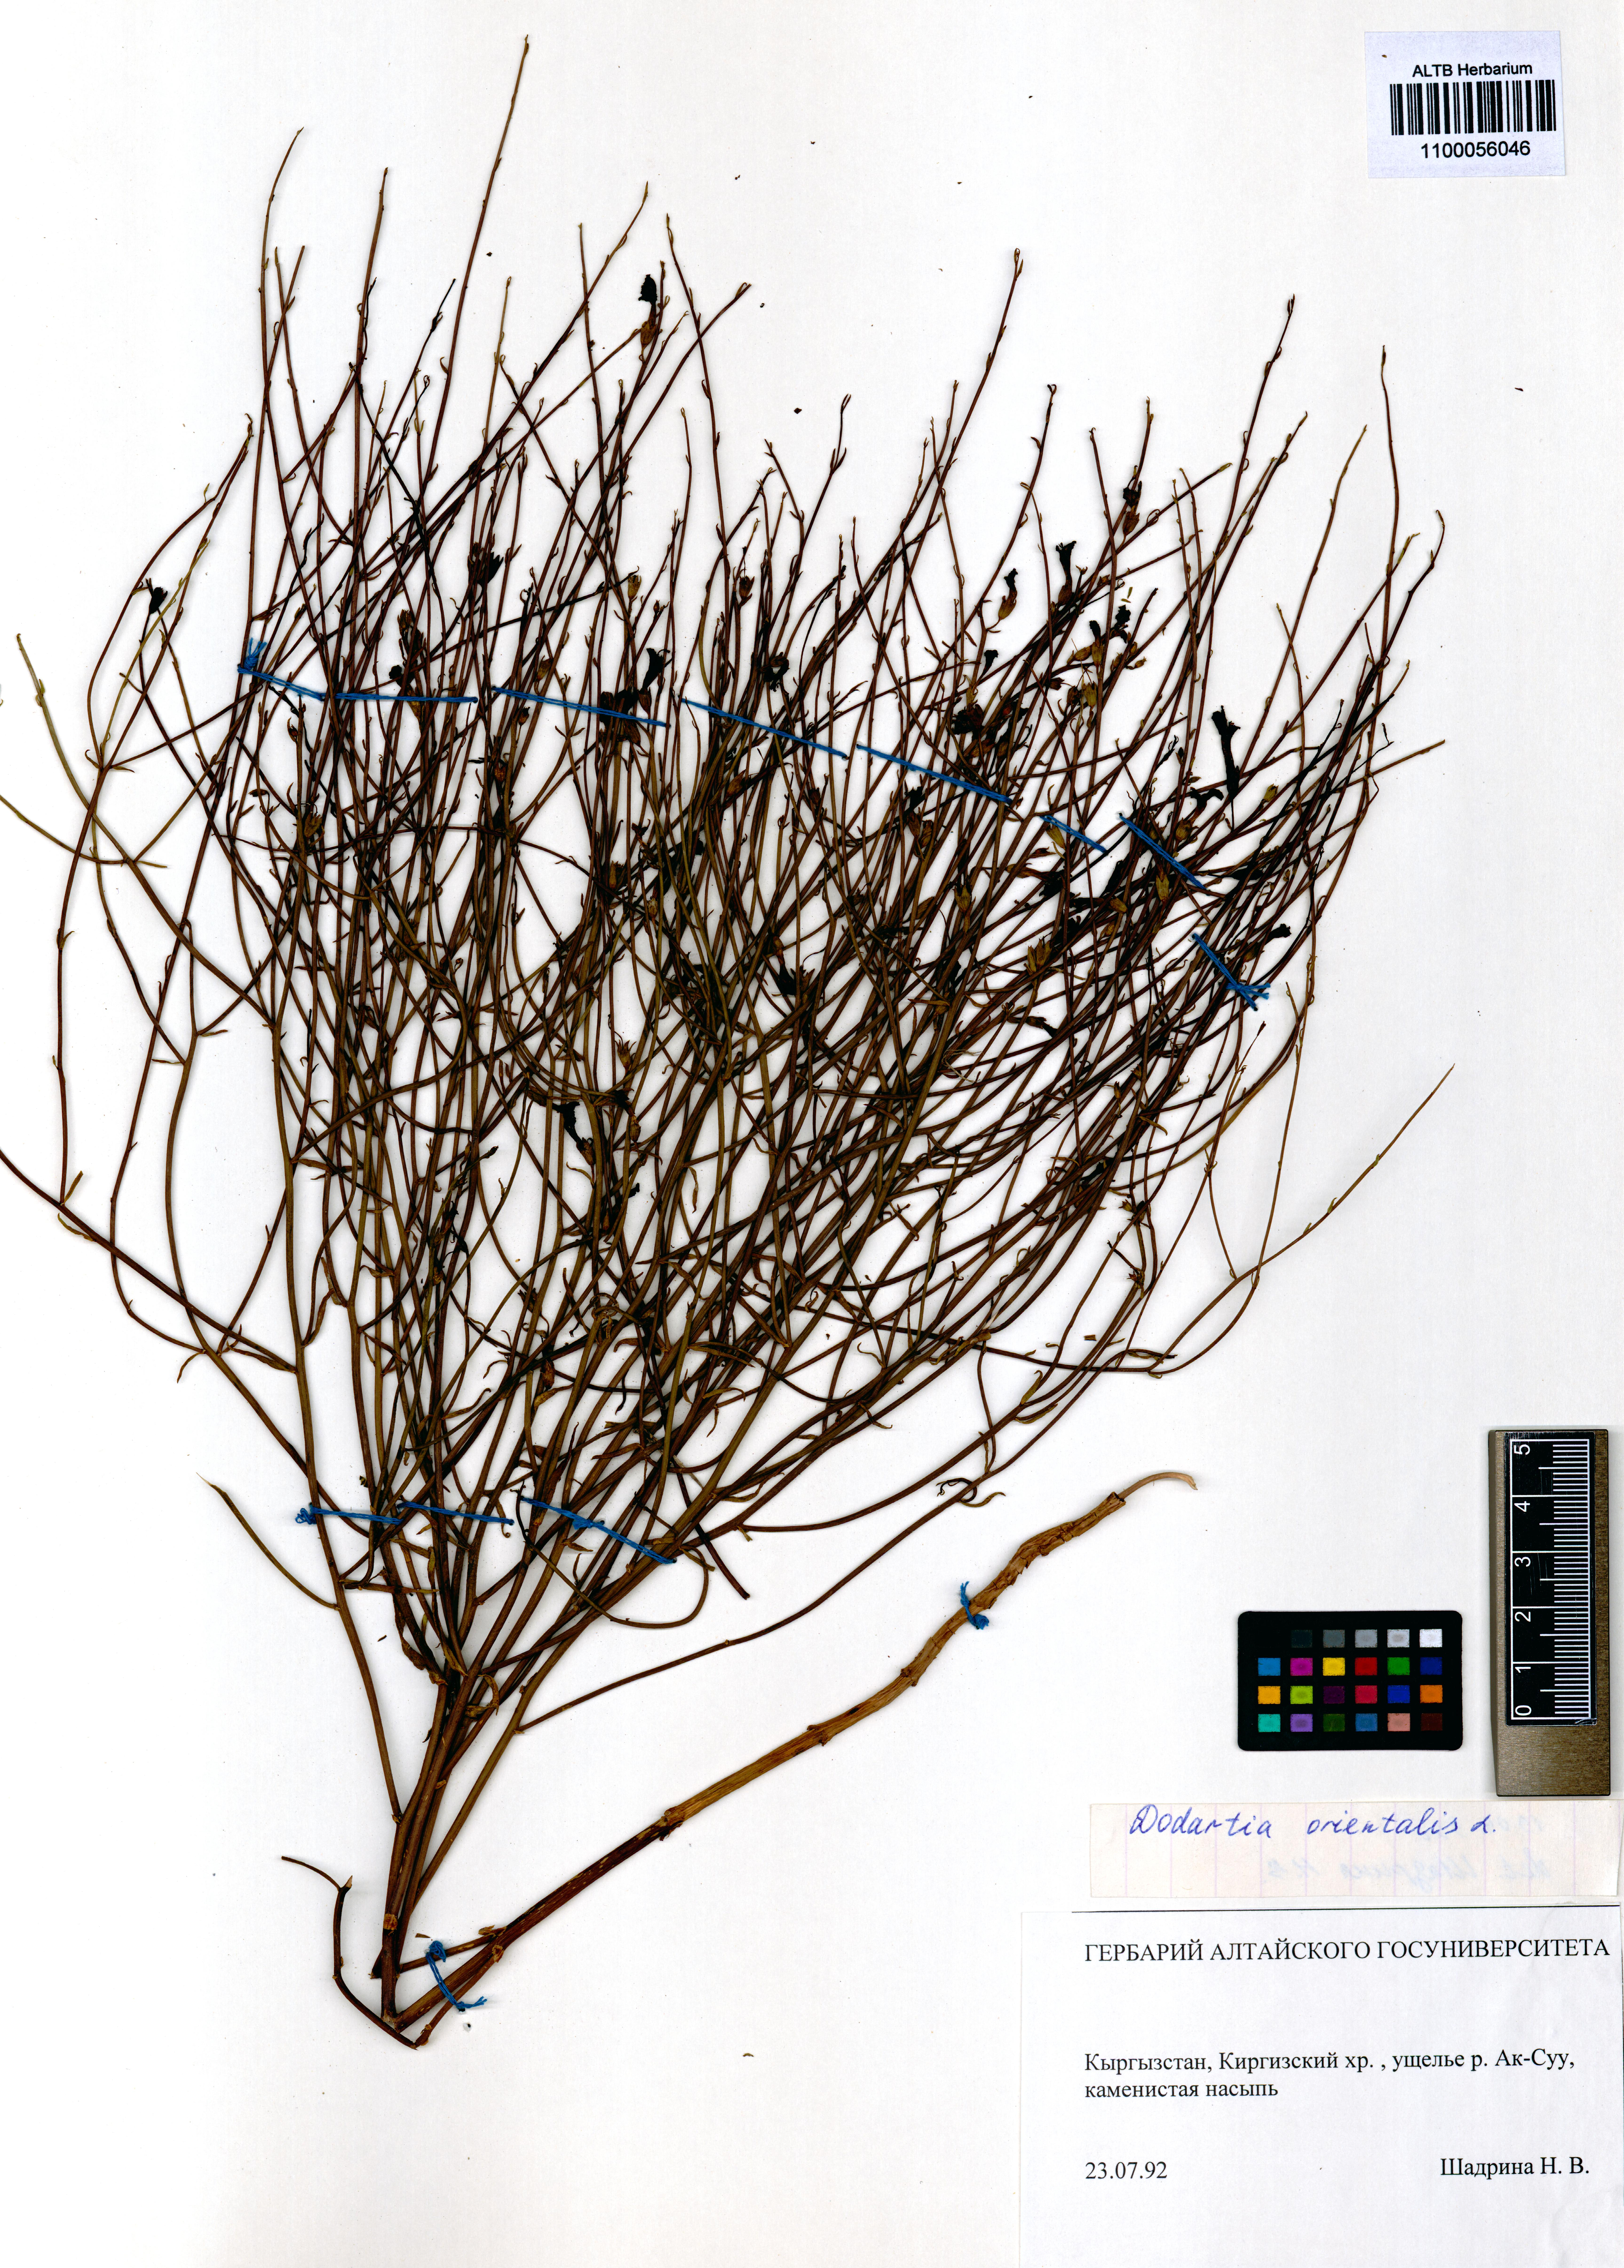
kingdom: Plantae
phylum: Tracheophyta
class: Magnoliopsida
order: Lamiales
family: Mazaceae
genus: Dodartia
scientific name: Dodartia orientalis
